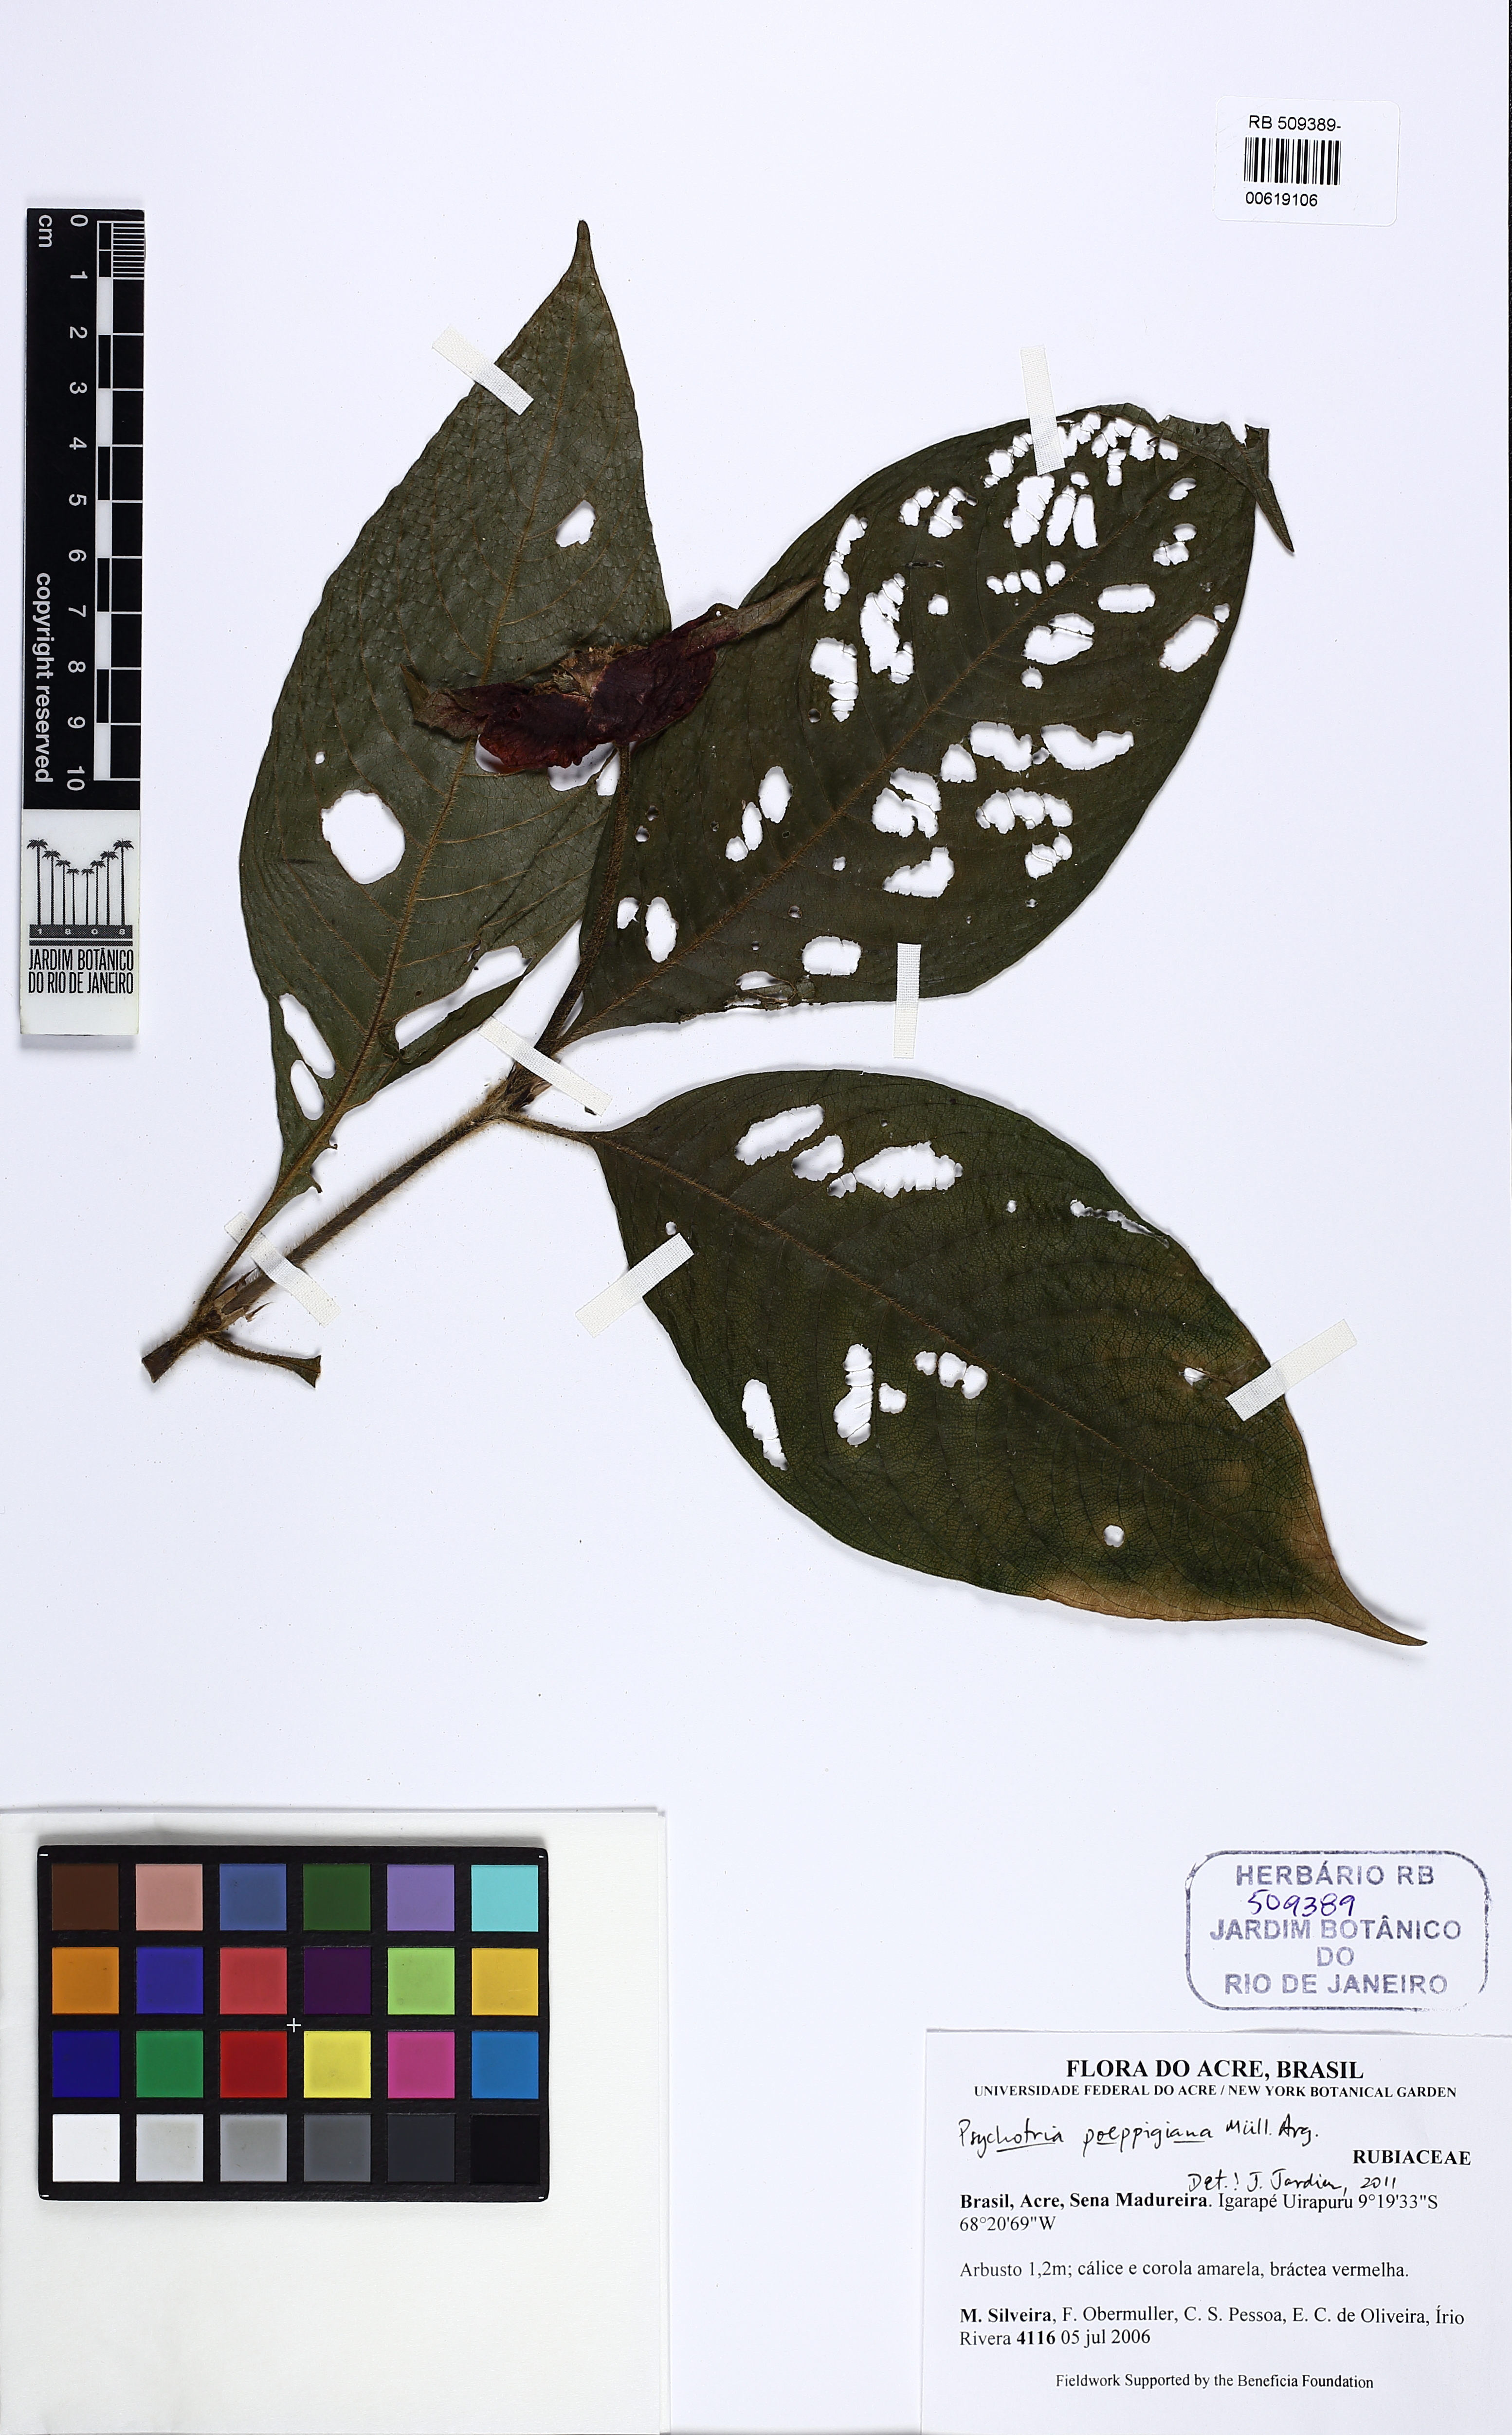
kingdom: Plantae
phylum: Tracheophyta
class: Magnoliopsida
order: Gentianales
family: Rubiaceae
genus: Palicourea
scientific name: Palicourea tomentosa
